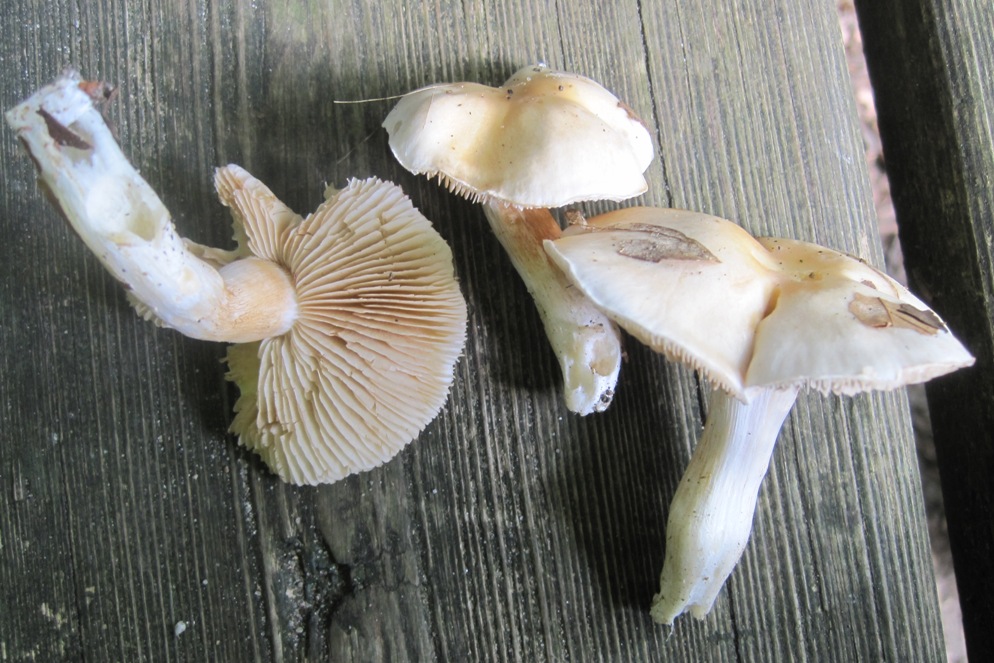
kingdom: Fungi
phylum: Basidiomycota
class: Agaricomycetes
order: Agaricales
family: Cortinariaceae
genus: Thaxterogaster
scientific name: Thaxterogaster barbatus
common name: elfenbens-slørhat
